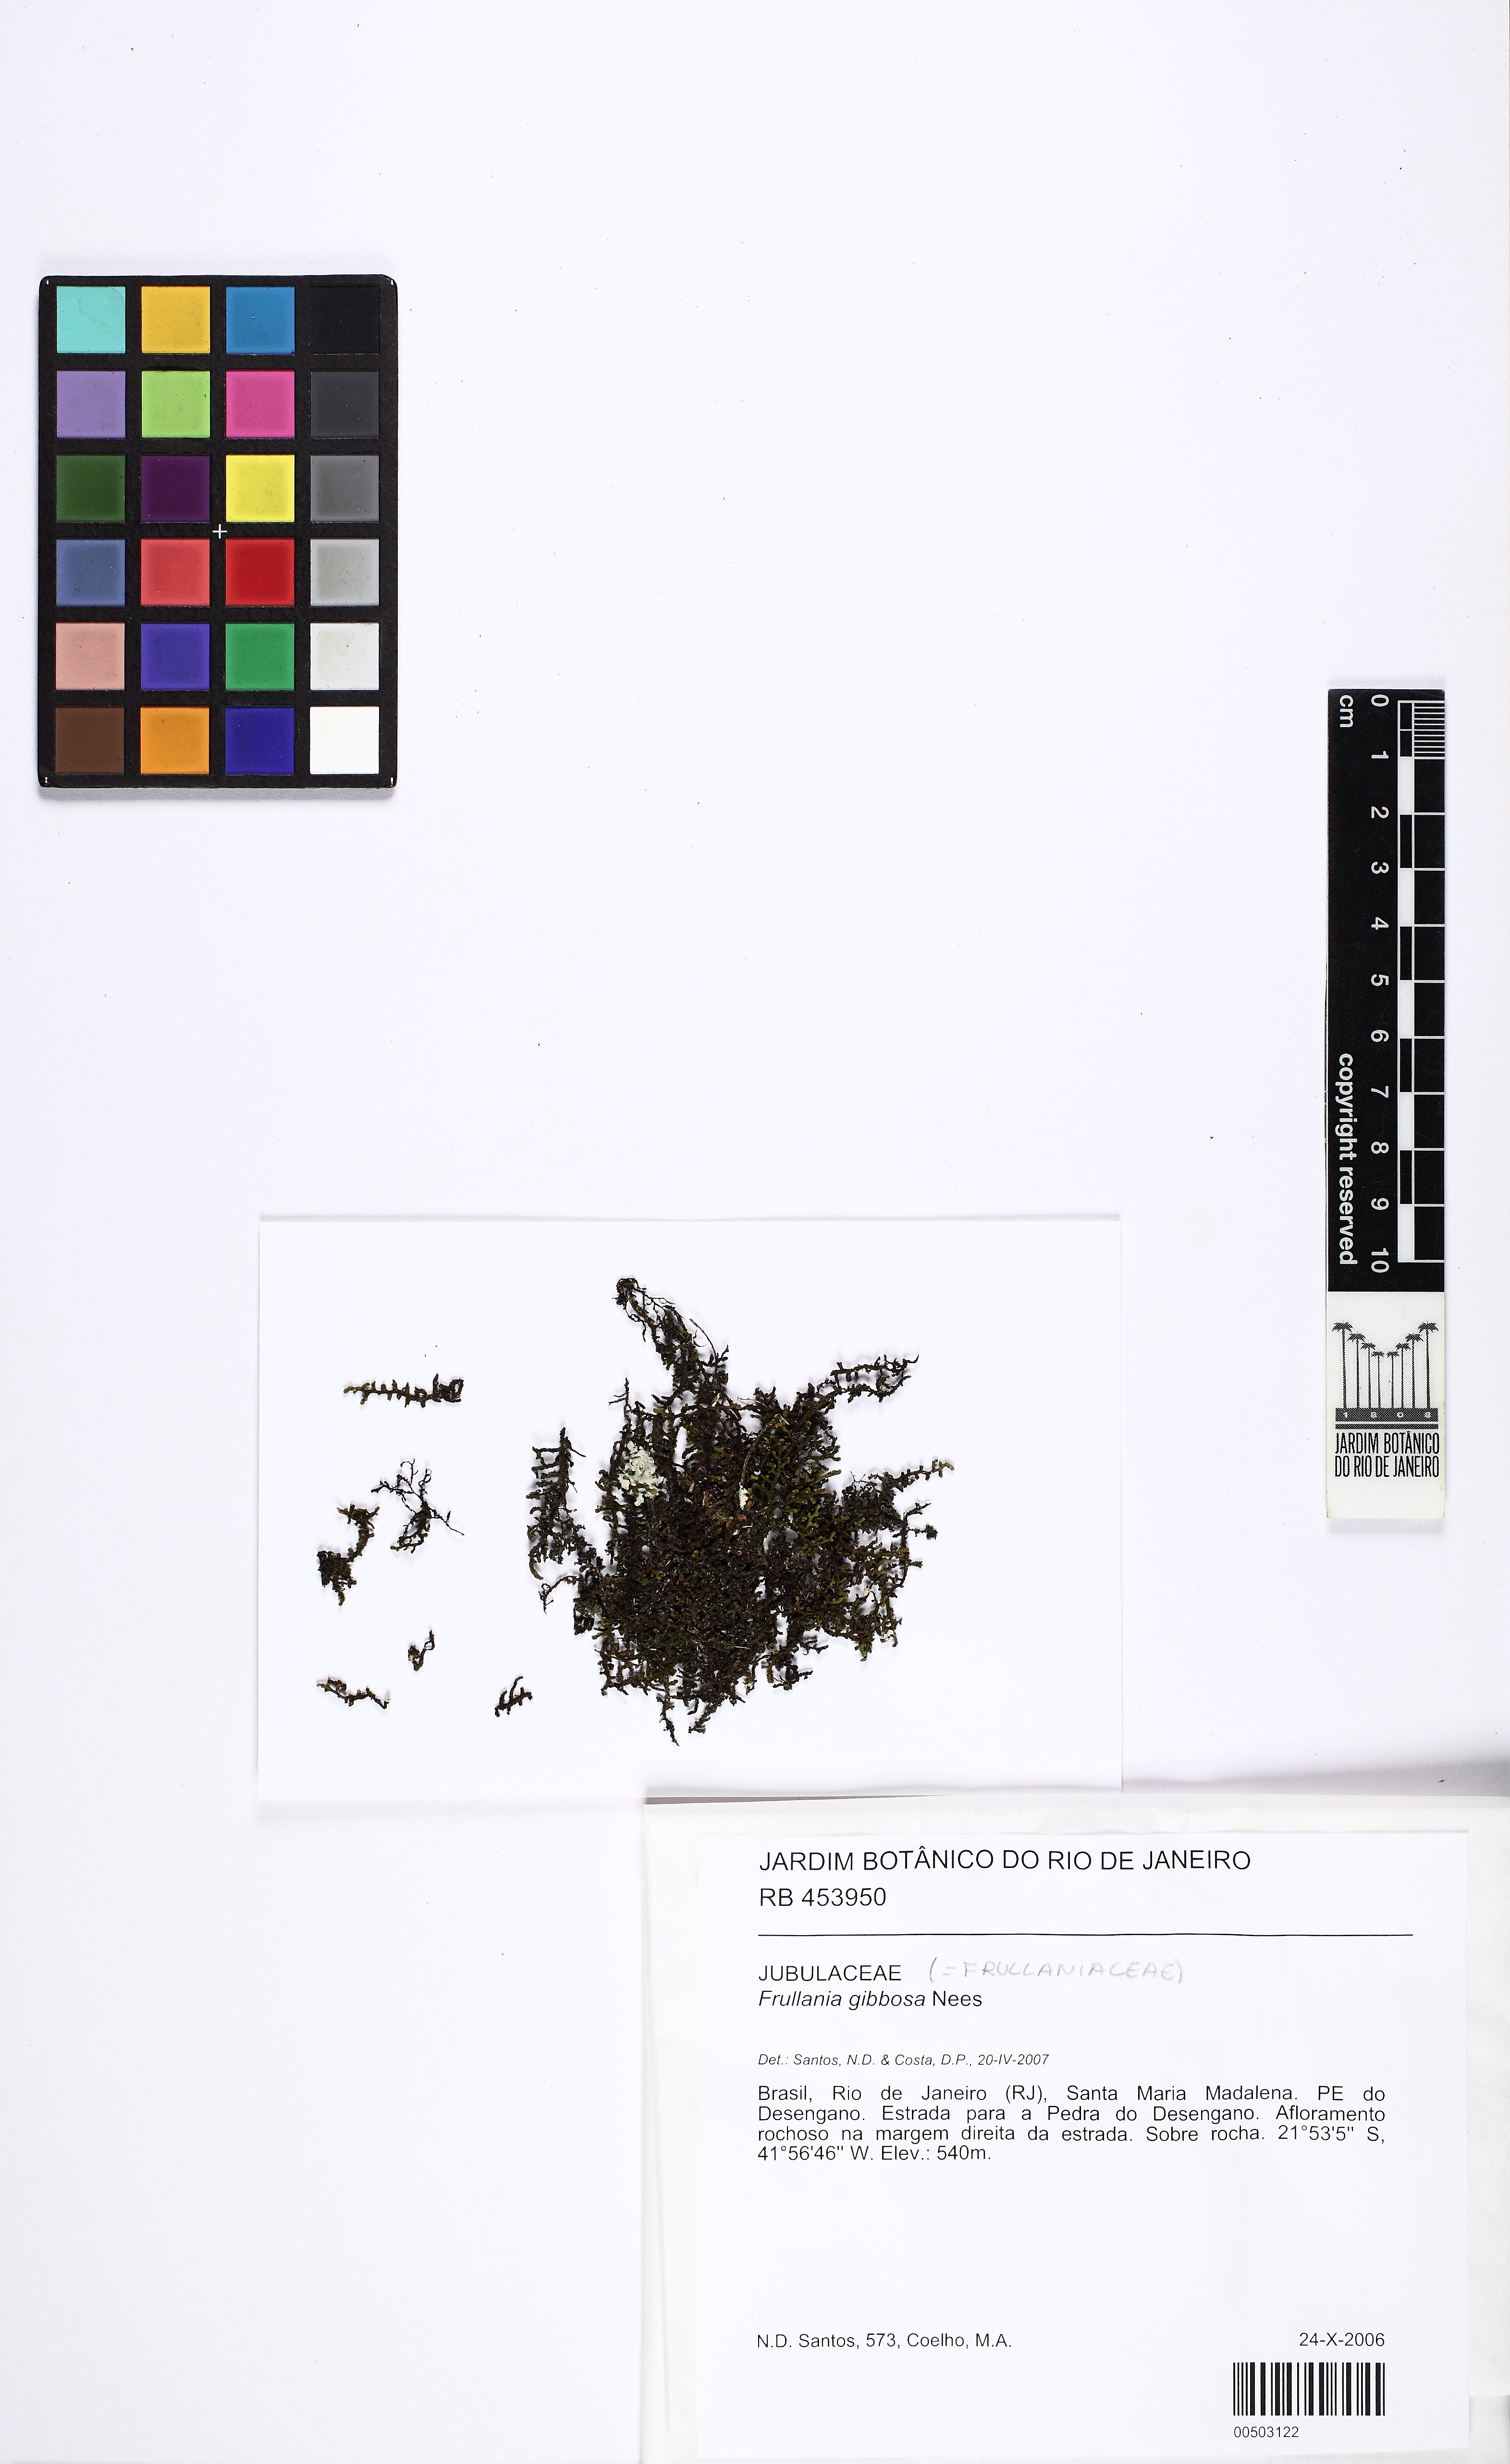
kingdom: Plantae
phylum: Marchantiophyta
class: Jungermanniopsida
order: Porellales
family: Frullaniaceae
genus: Frullania
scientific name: Frullania gibbosa
